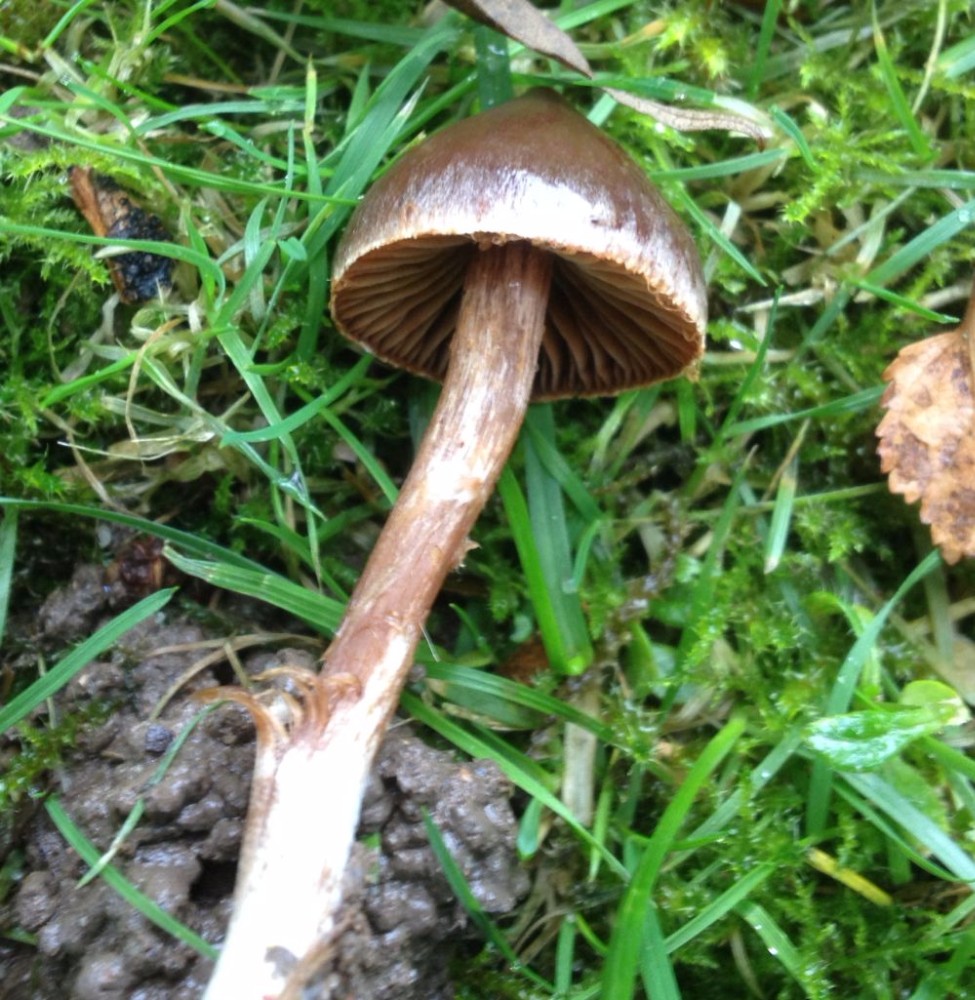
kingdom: Fungi
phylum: Basidiomycota
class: Agaricomycetes
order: Agaricales
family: Cortinariaceae
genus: Cortinarius
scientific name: Cortinarius
